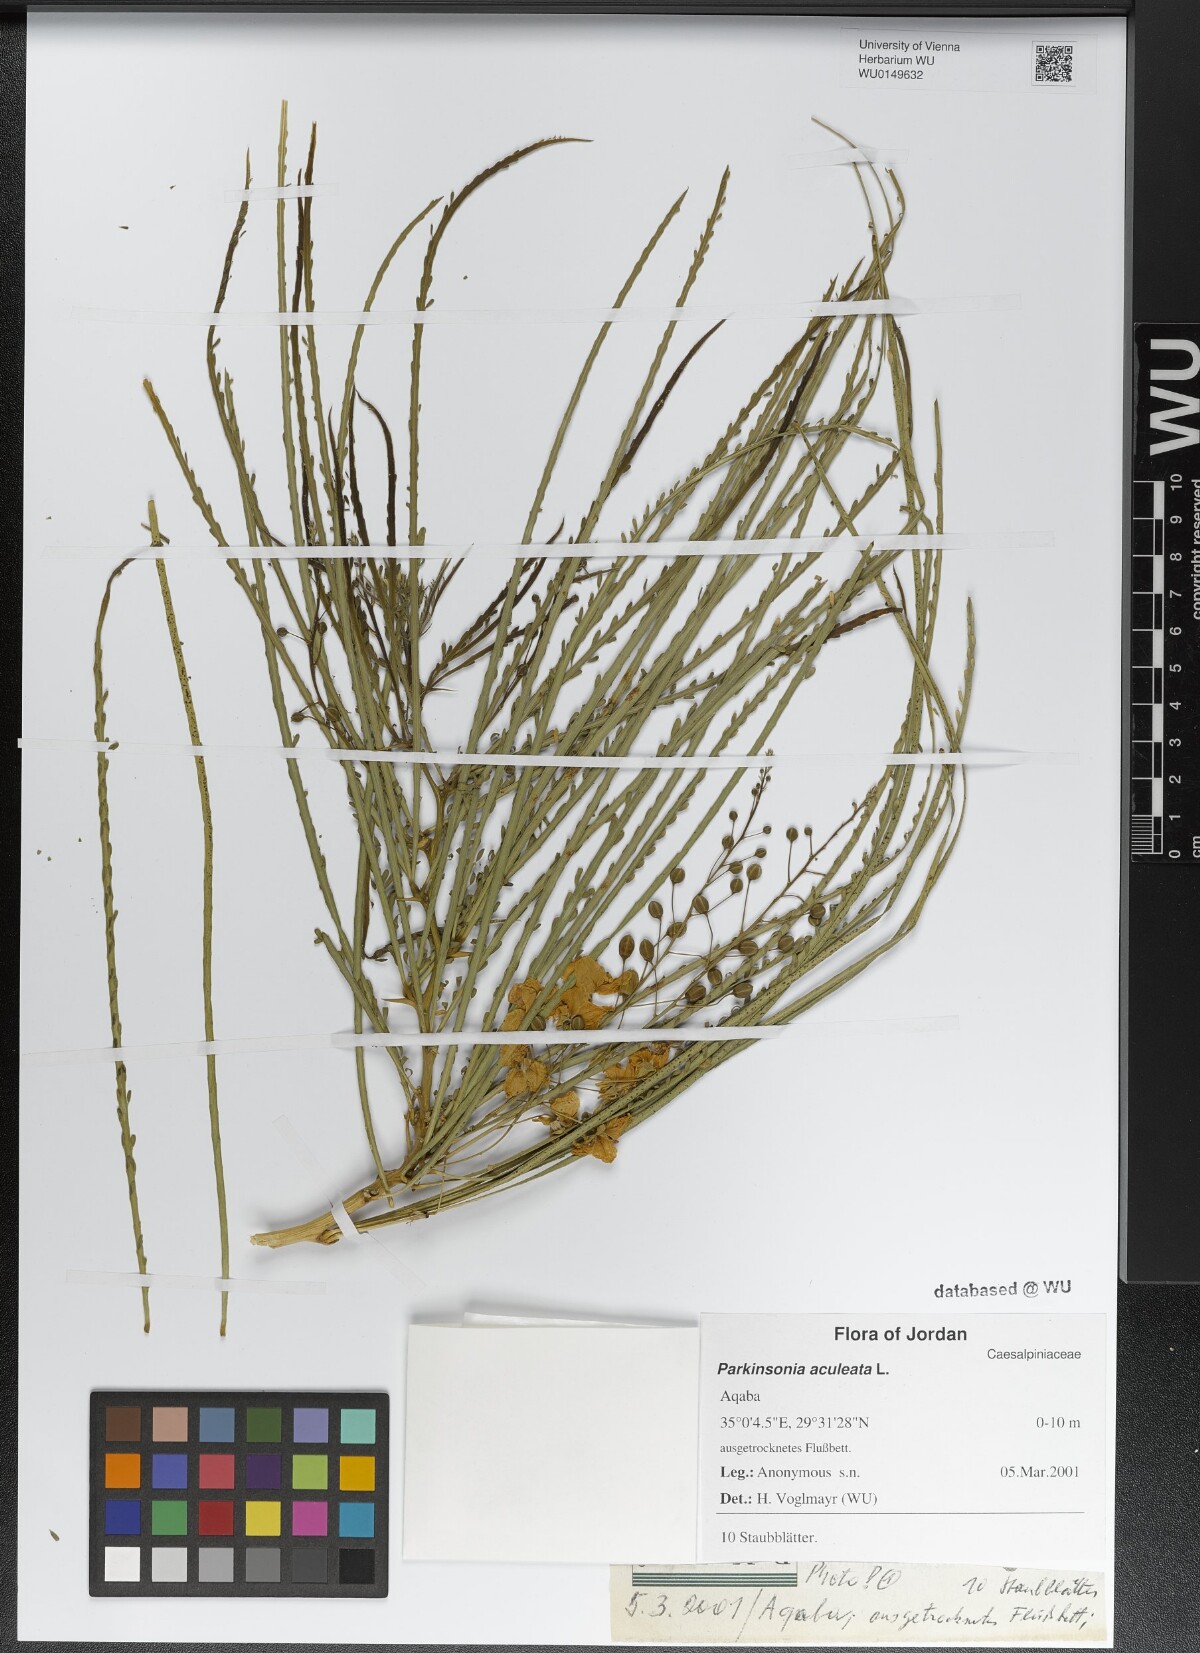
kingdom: Plantae
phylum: Tracheophyta
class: Magnoliopsida
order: Fabales
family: Fabaceae
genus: Parkinsonia
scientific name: Parkinsonia aculeata
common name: Jerusalem thorn
